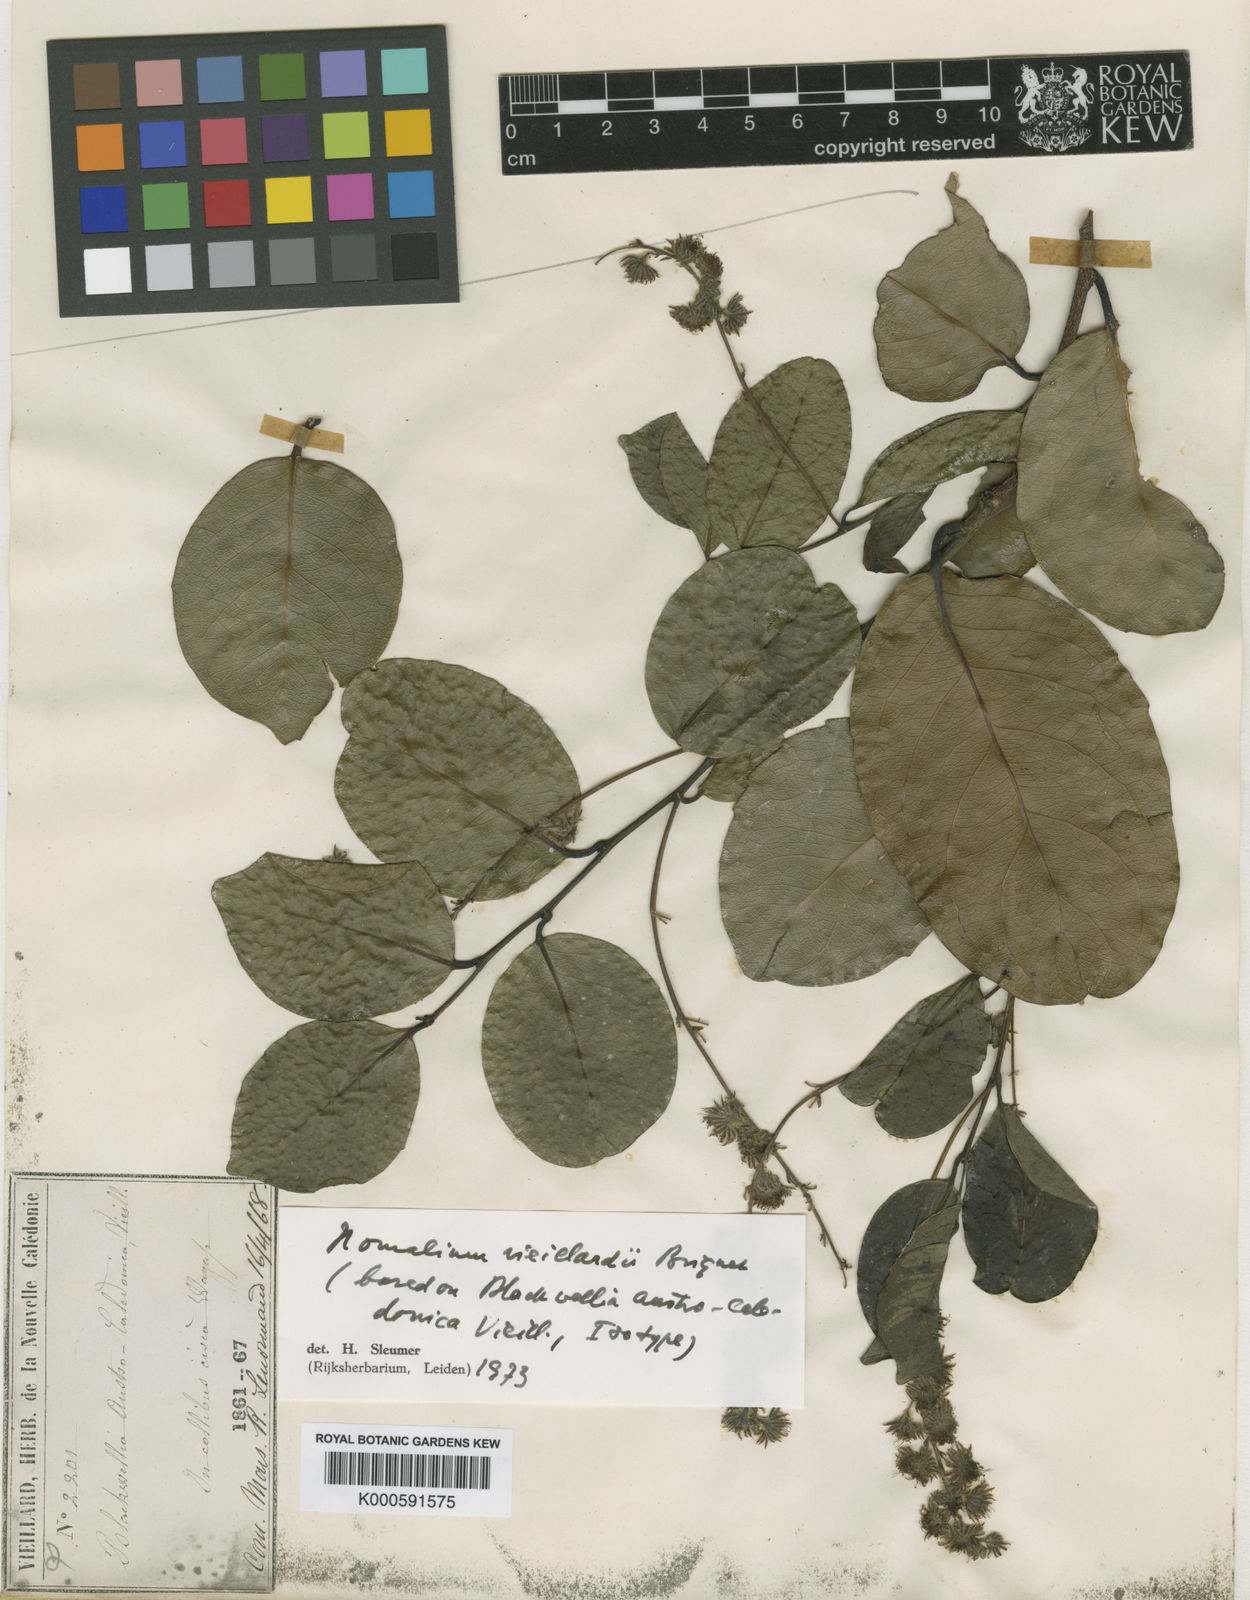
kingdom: Plantae
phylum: Tracheophyta
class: Magnoliopsida
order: Malpighiales
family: Salicaceae
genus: Homalium
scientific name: Homalium decurrens
